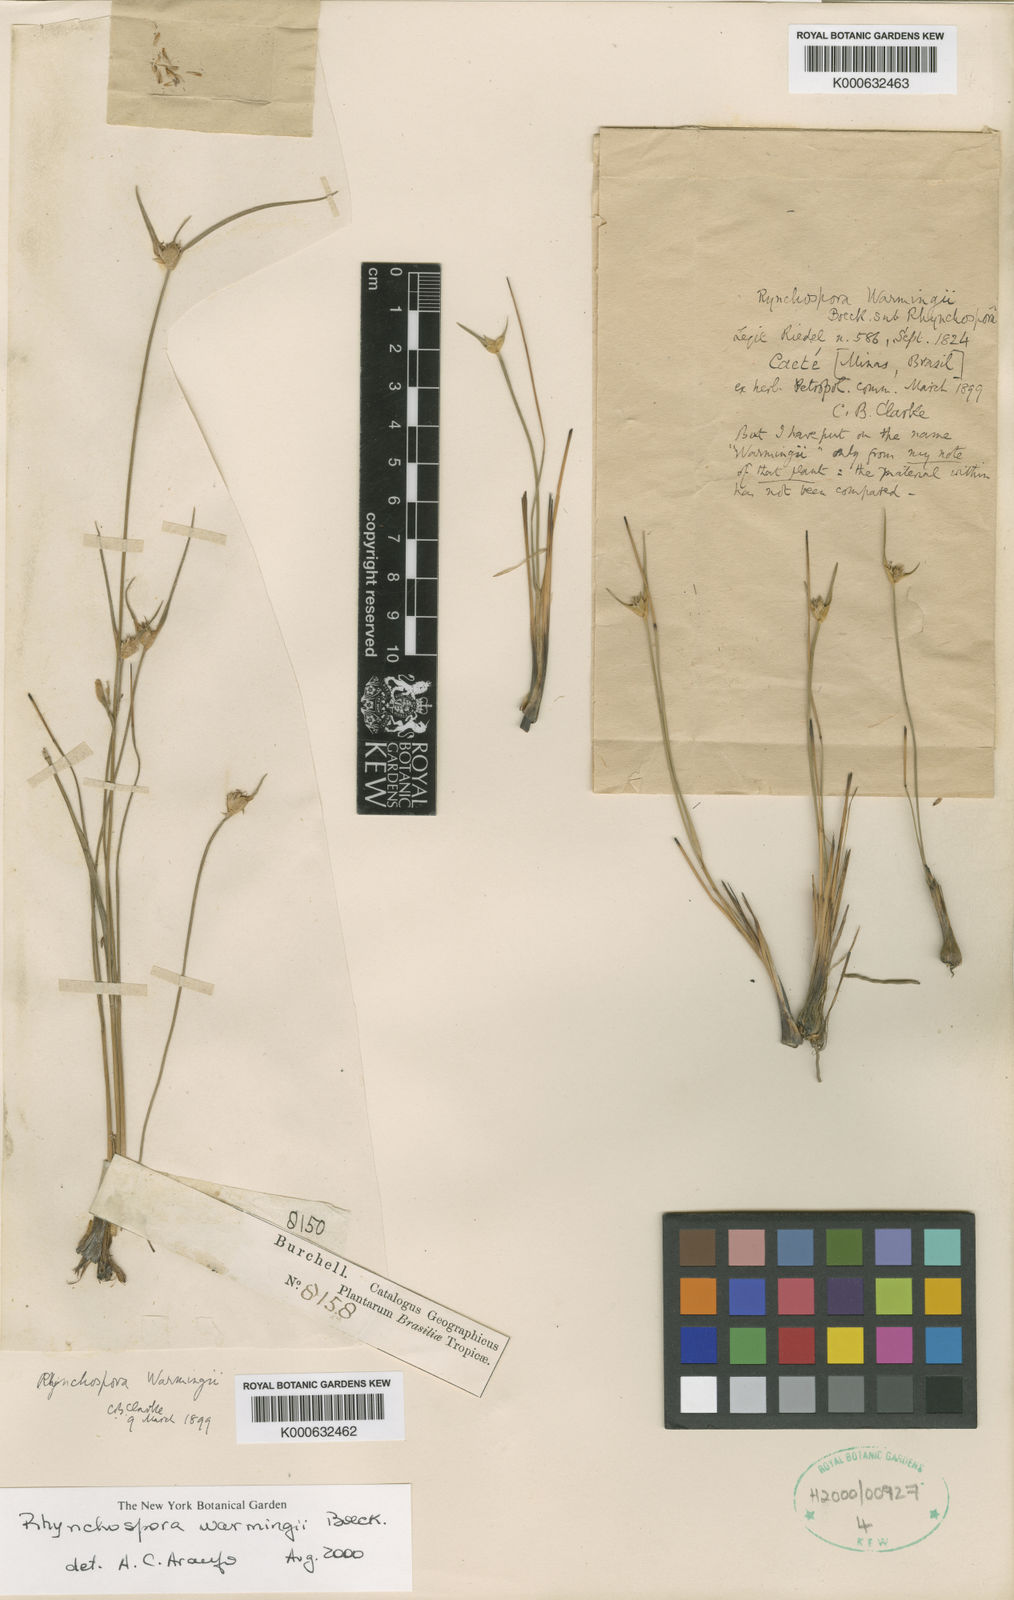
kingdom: Plantae
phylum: Tracheophyta
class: Liliopsida
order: Poales
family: Cyperaceae
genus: Rhynchospora
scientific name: Rhynchospora warmingii
